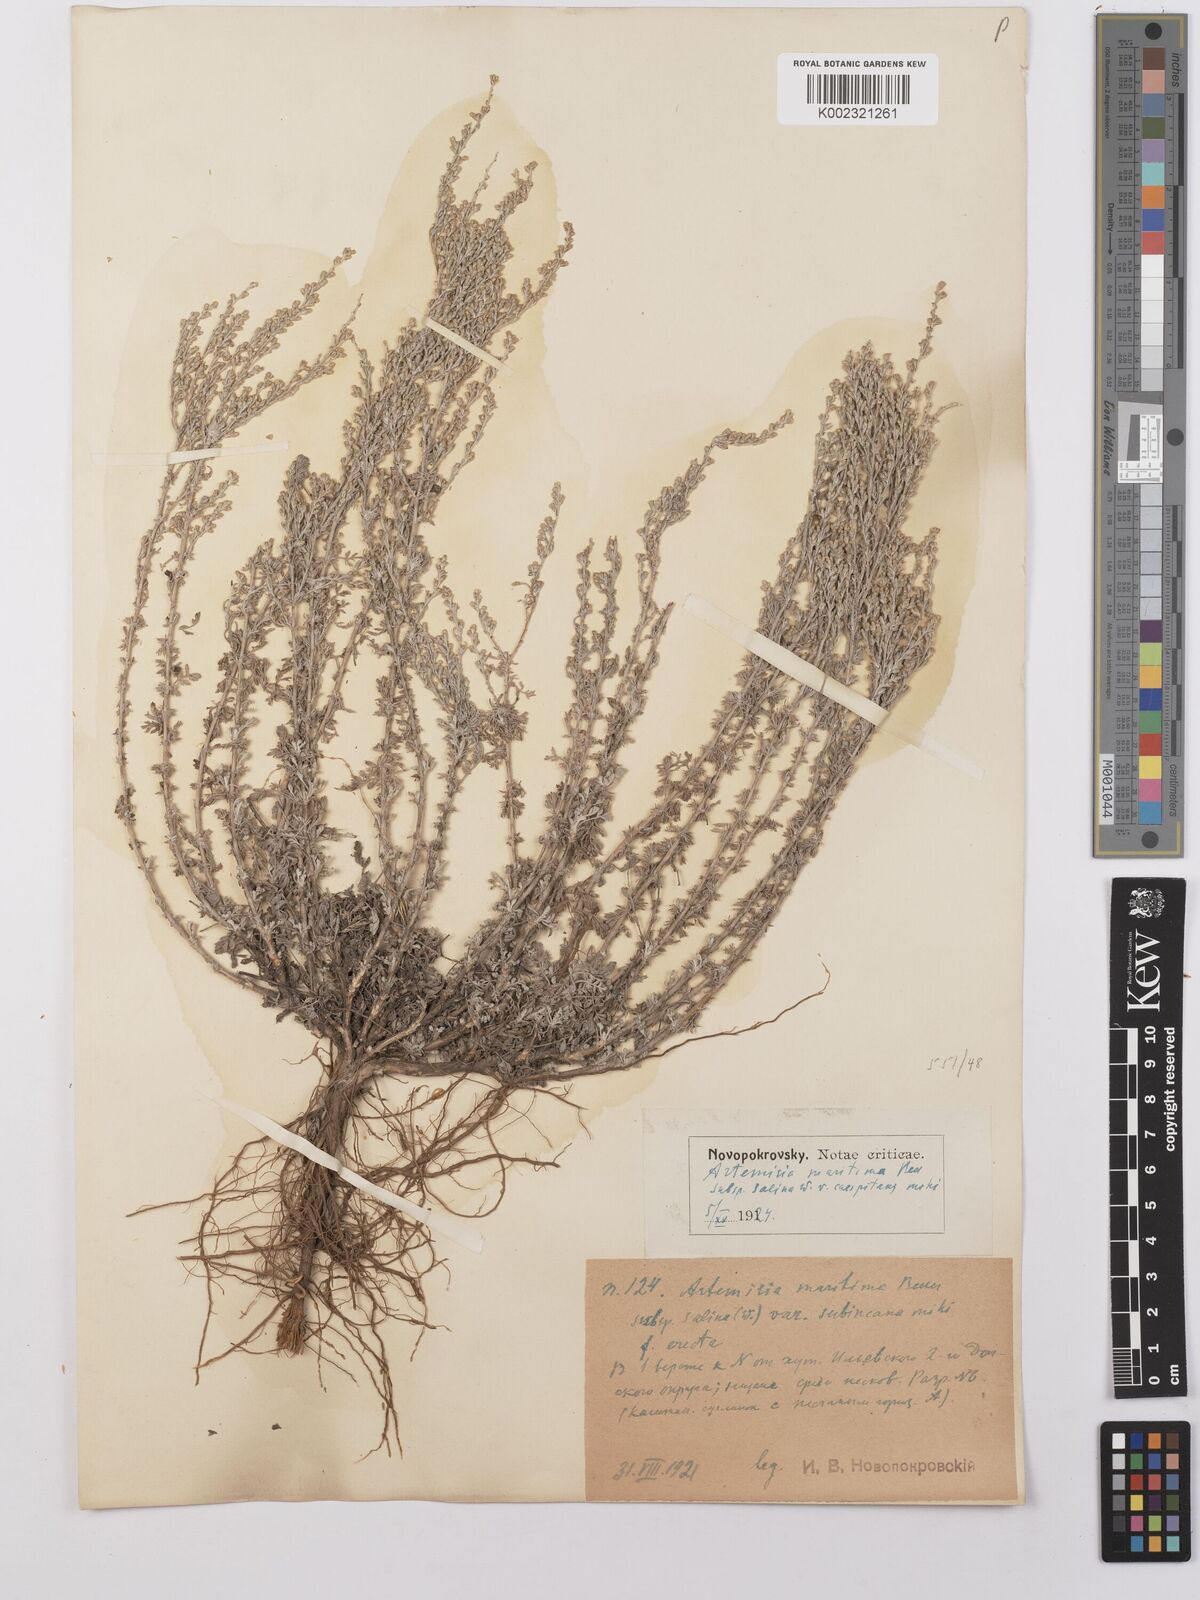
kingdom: Plantae
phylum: Tracheophyta
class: Magnoliopsida
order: Asterales
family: Asteraceae
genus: Artemisia
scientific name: Artemisia maritima
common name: Wormseed
